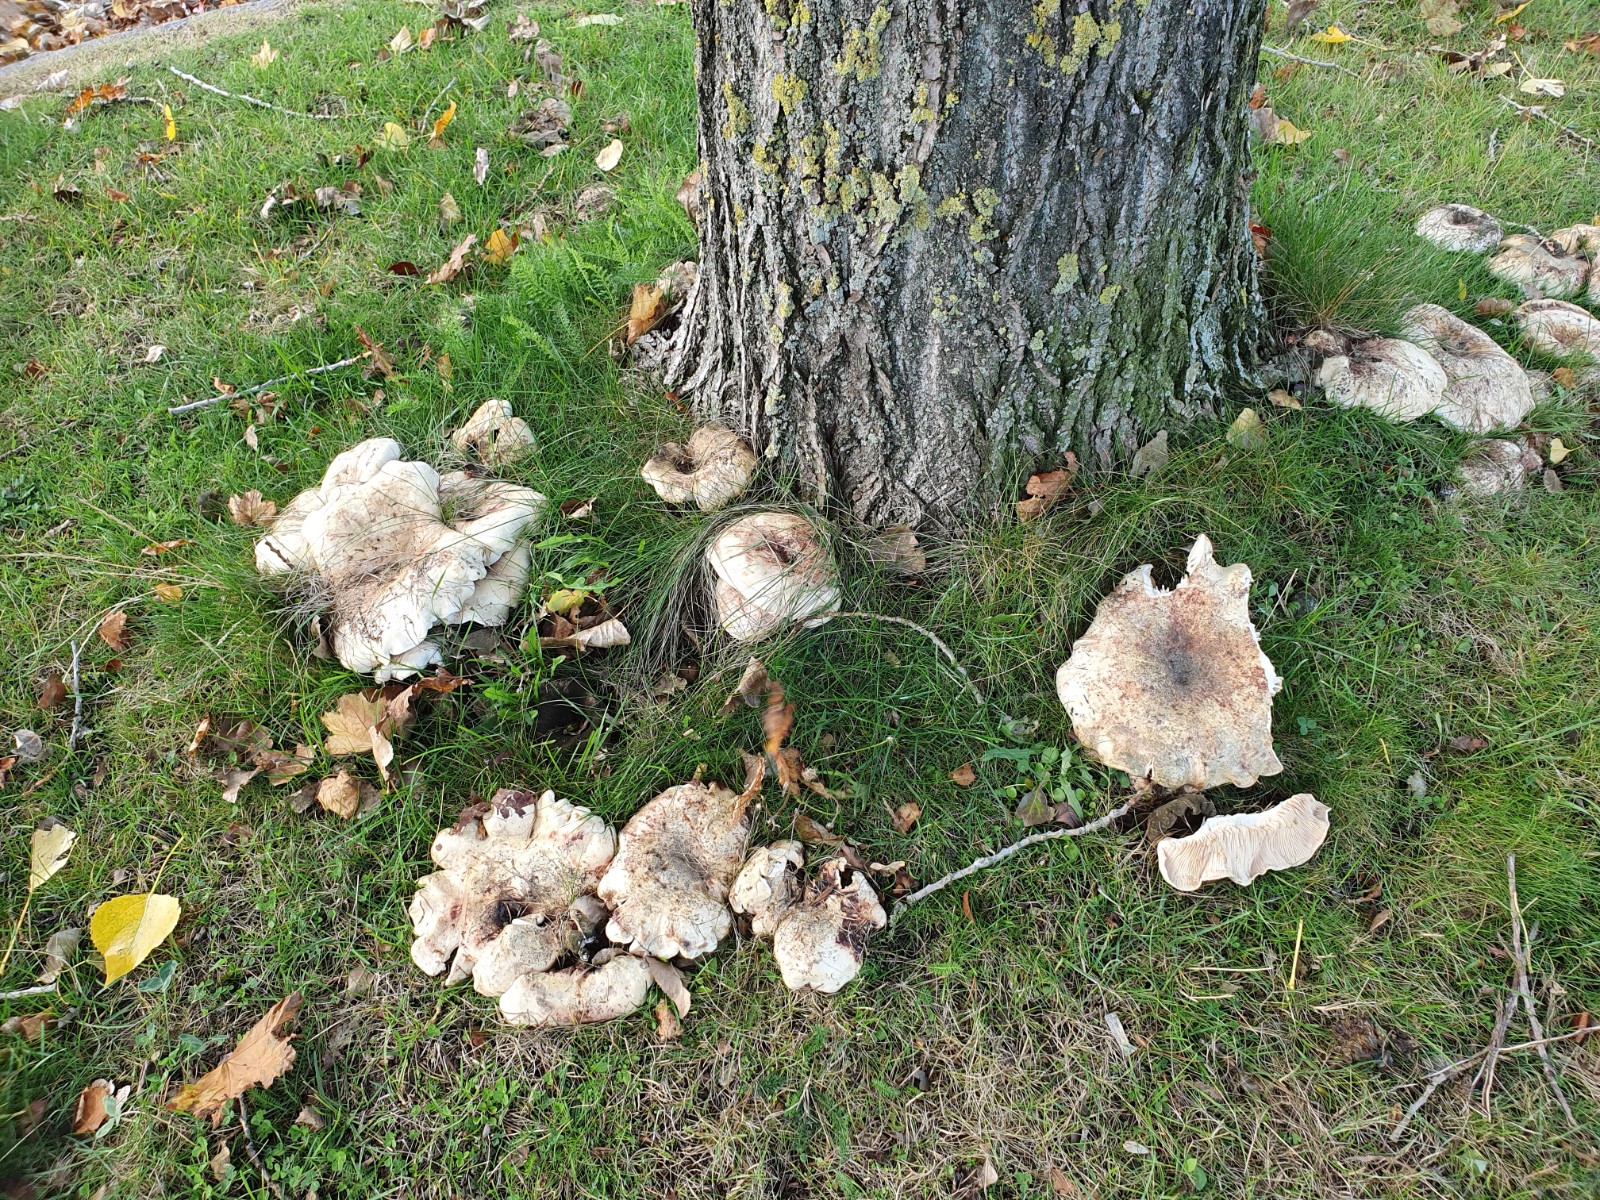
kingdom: Fungi
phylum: Basidiomycota
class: Agaricomycetes
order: Russulales
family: Russulaceae
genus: Lactarius
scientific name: Lactarius controversus
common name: rosabladet mælkehat
